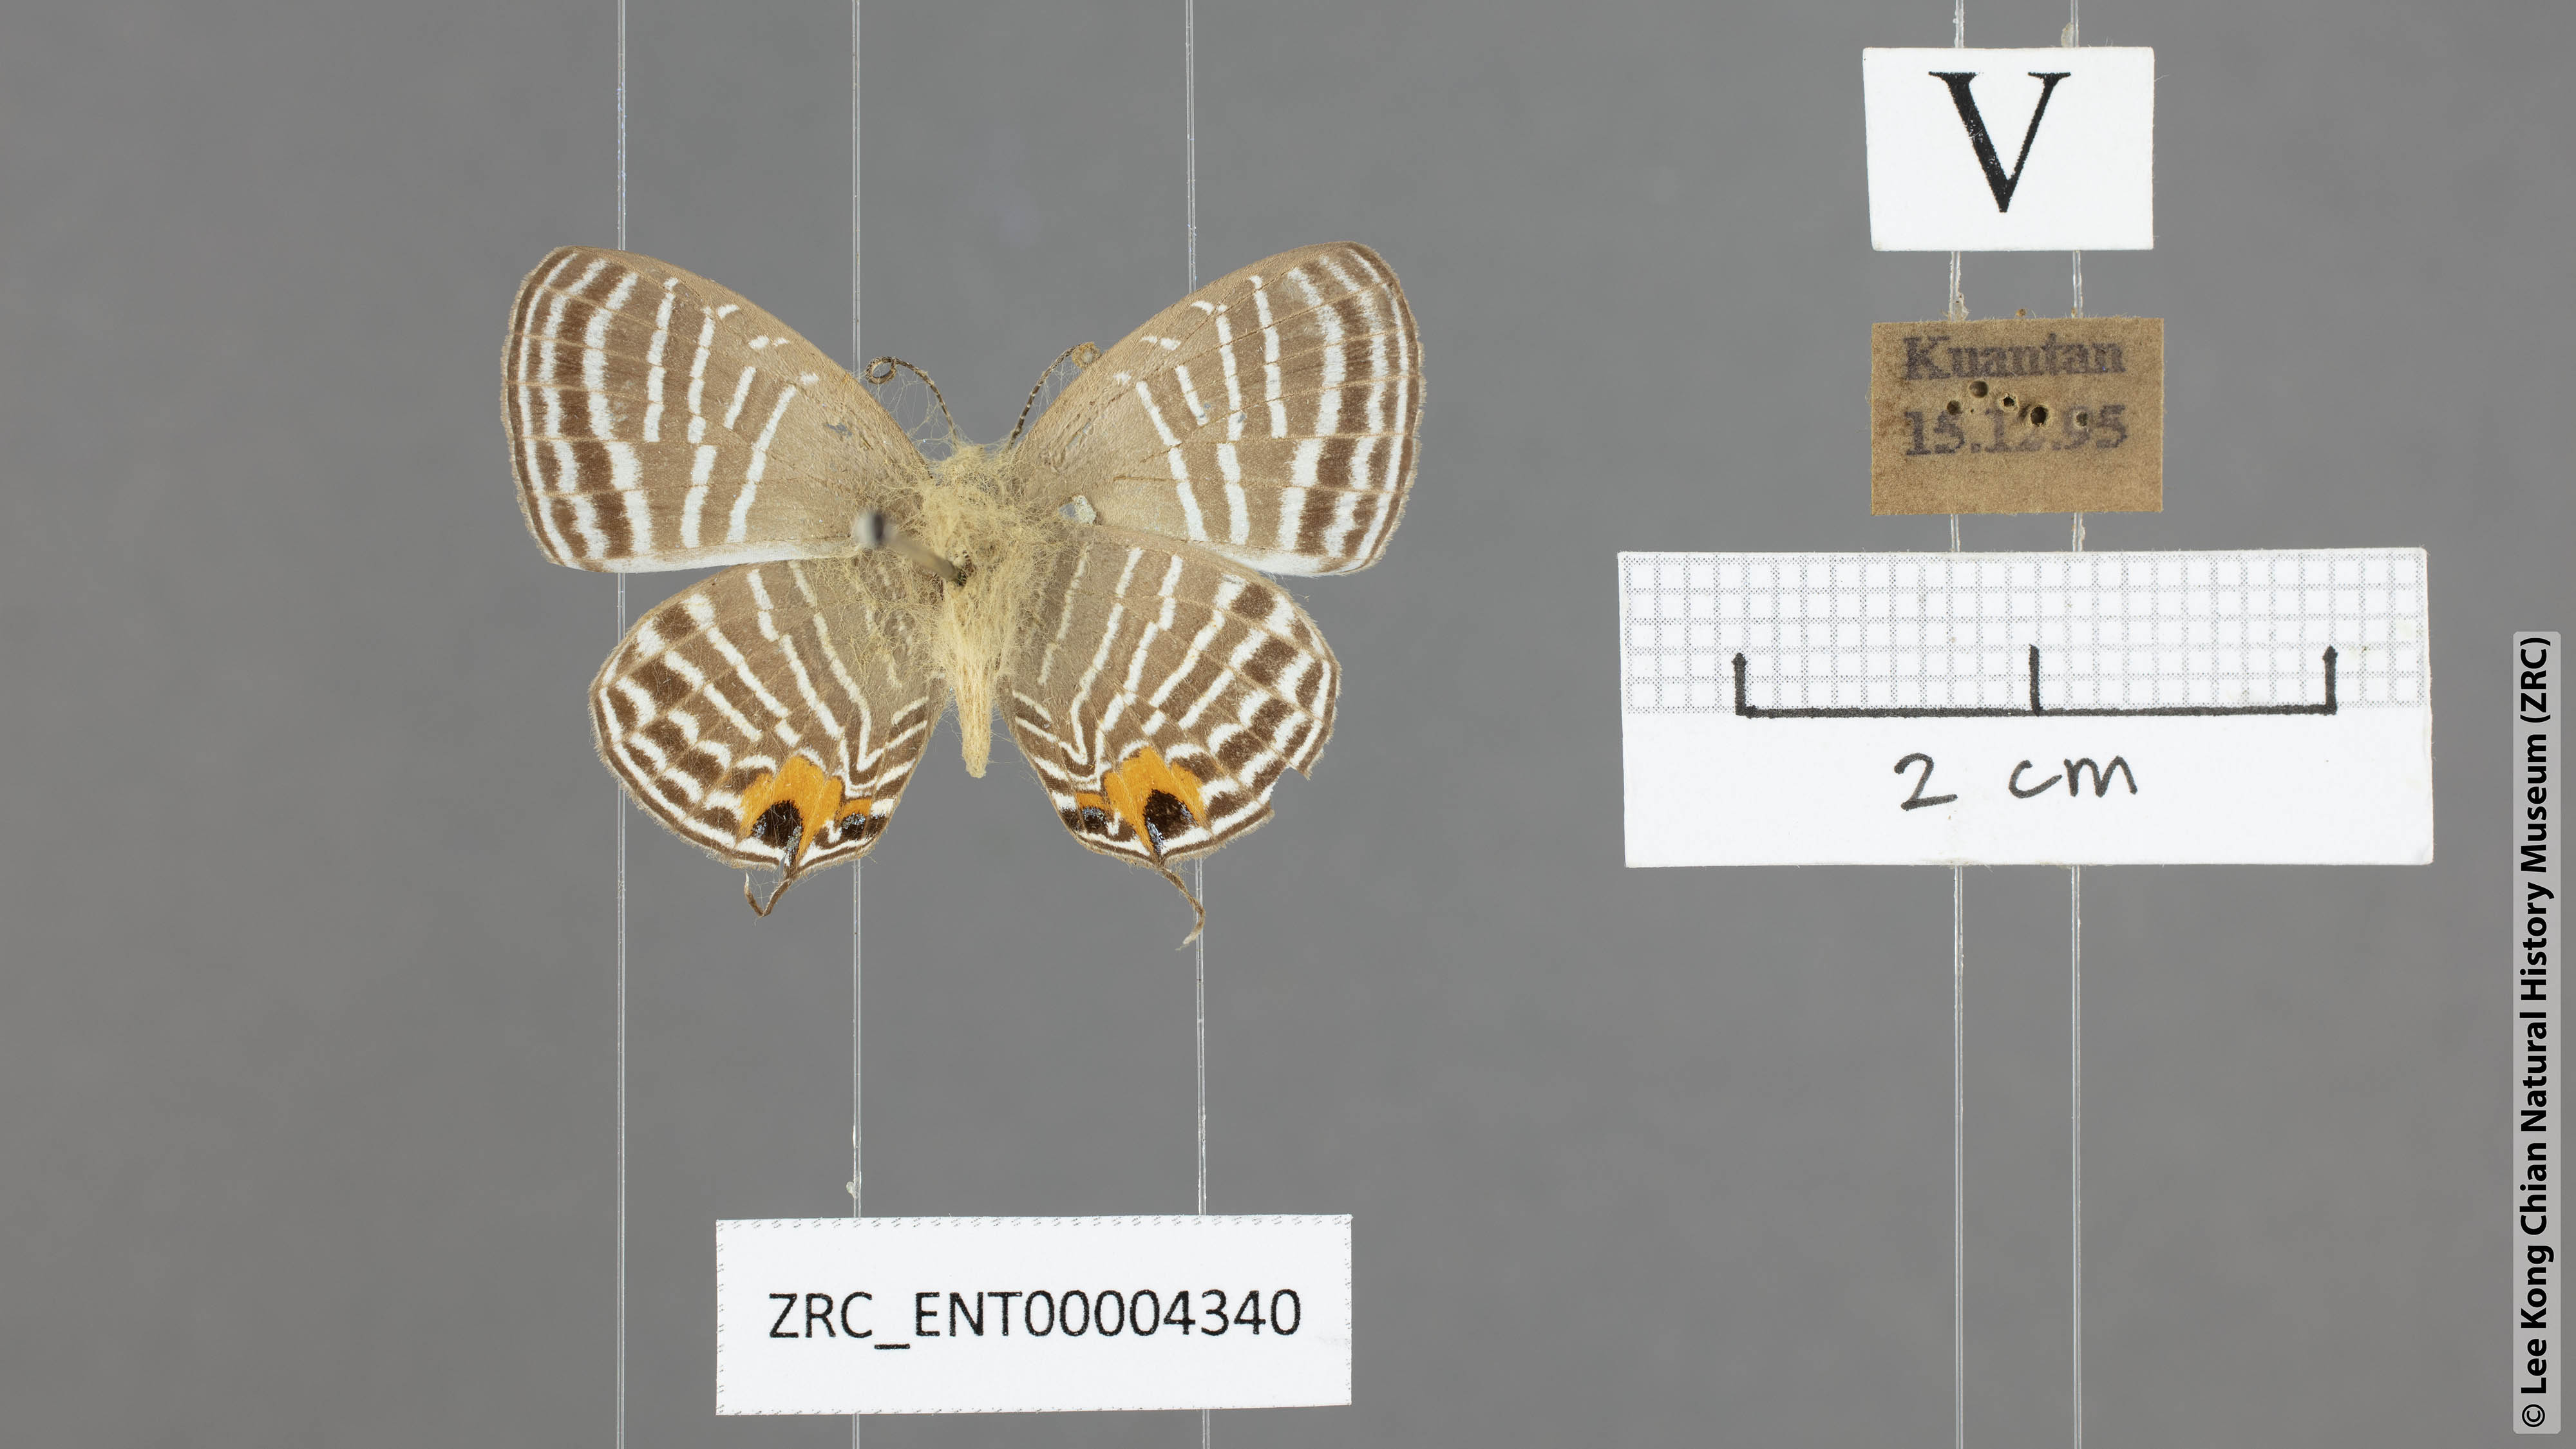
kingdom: Animalia
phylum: Arthropoda
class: Insecta
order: Lepidoptera
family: Lycaenidae
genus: Jamides
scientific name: Jamides malaccanus
